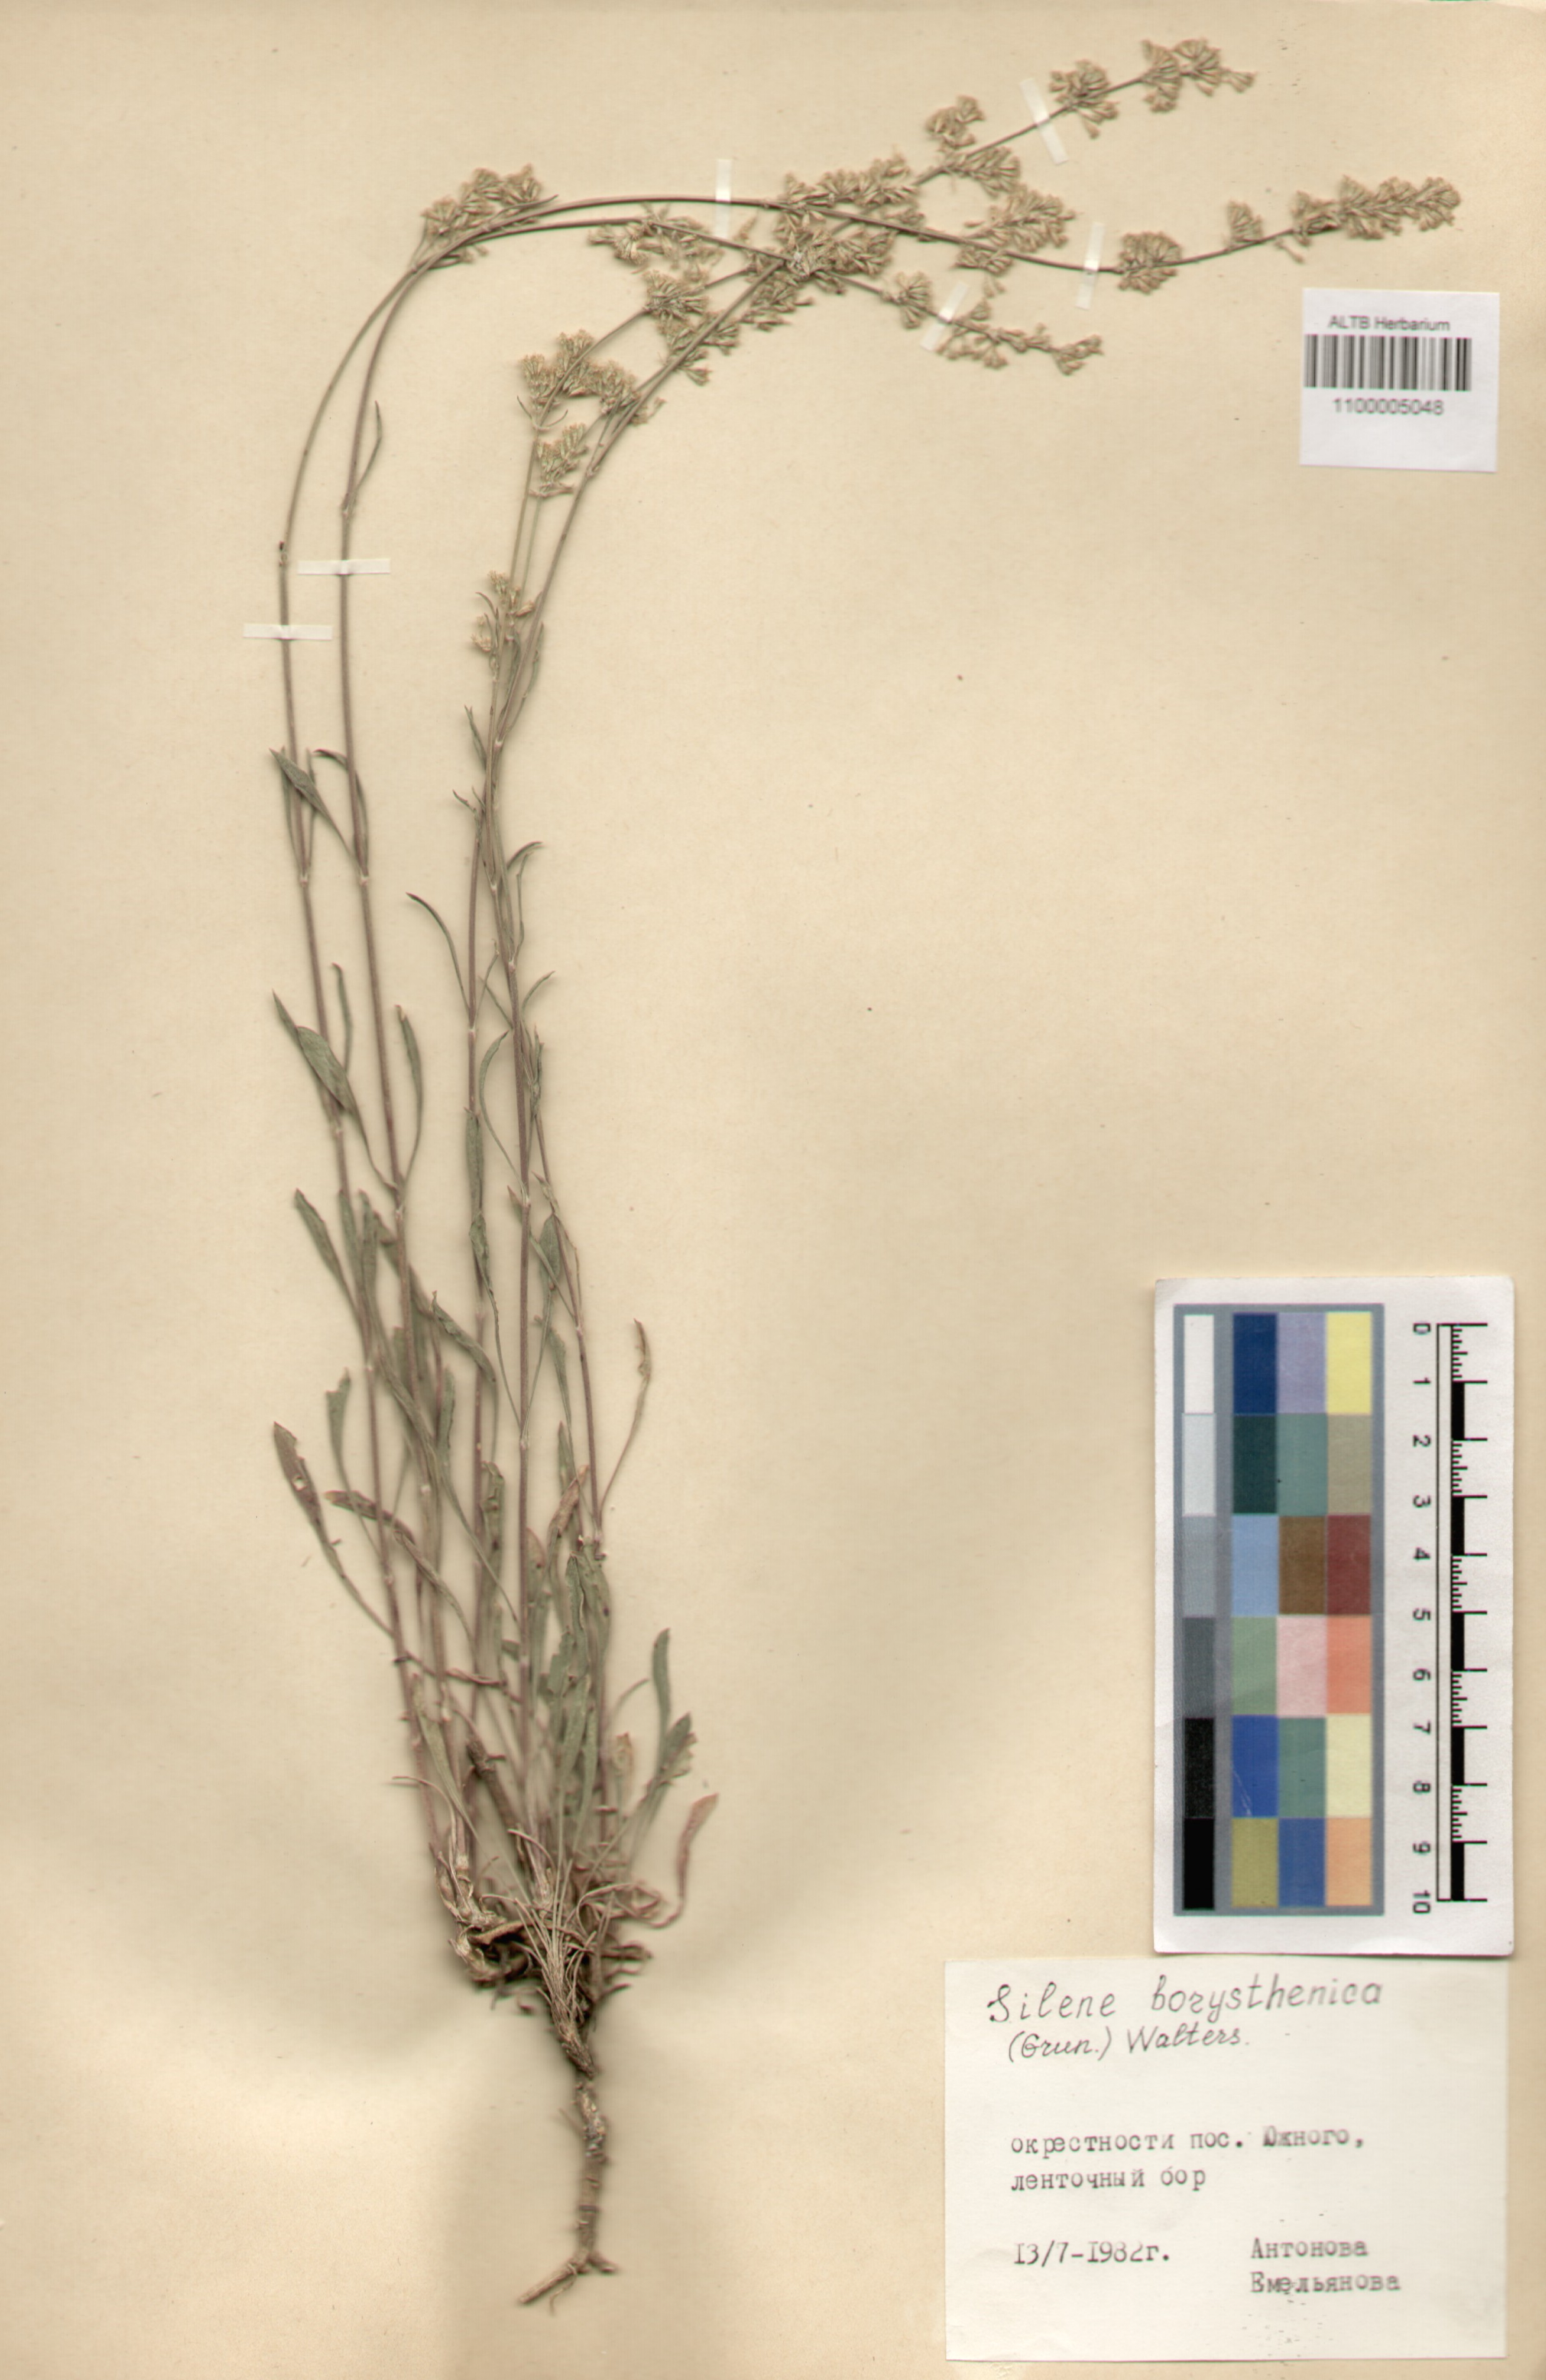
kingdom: Plantae
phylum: Tracheophyta
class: Magnoliopsida
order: Caryophyllales
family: Caryophyllaceae
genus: Silene
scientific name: Silene borysthenica
